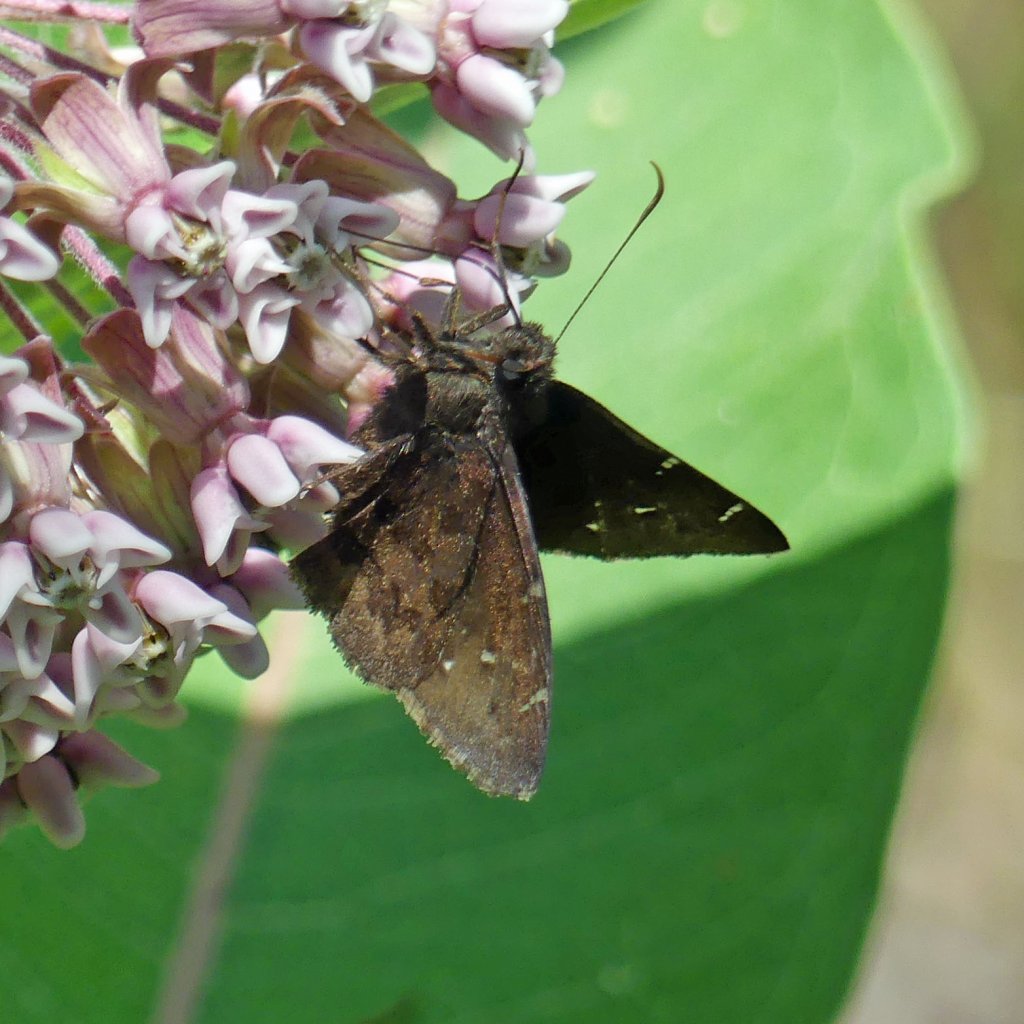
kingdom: Animalia
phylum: Arthropoda
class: Insecta
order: Lepidoptera
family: Hesperiidae
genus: Autochton
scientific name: Autochton
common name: Northern Cloudywing
